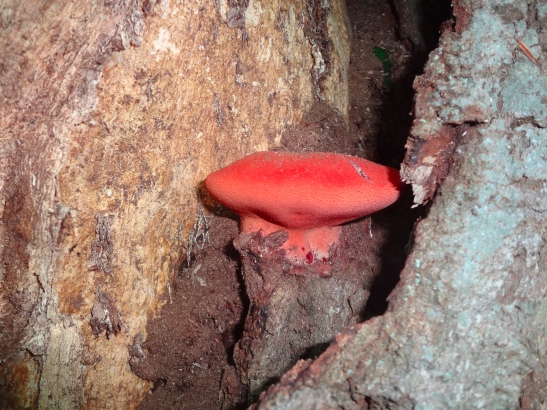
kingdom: Fungi
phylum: Basidiomycota
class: Agaricomycetes
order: Agaricales
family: Fistulinaceae
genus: Fistulina
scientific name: Fistulina hepatica
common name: oksetunge
